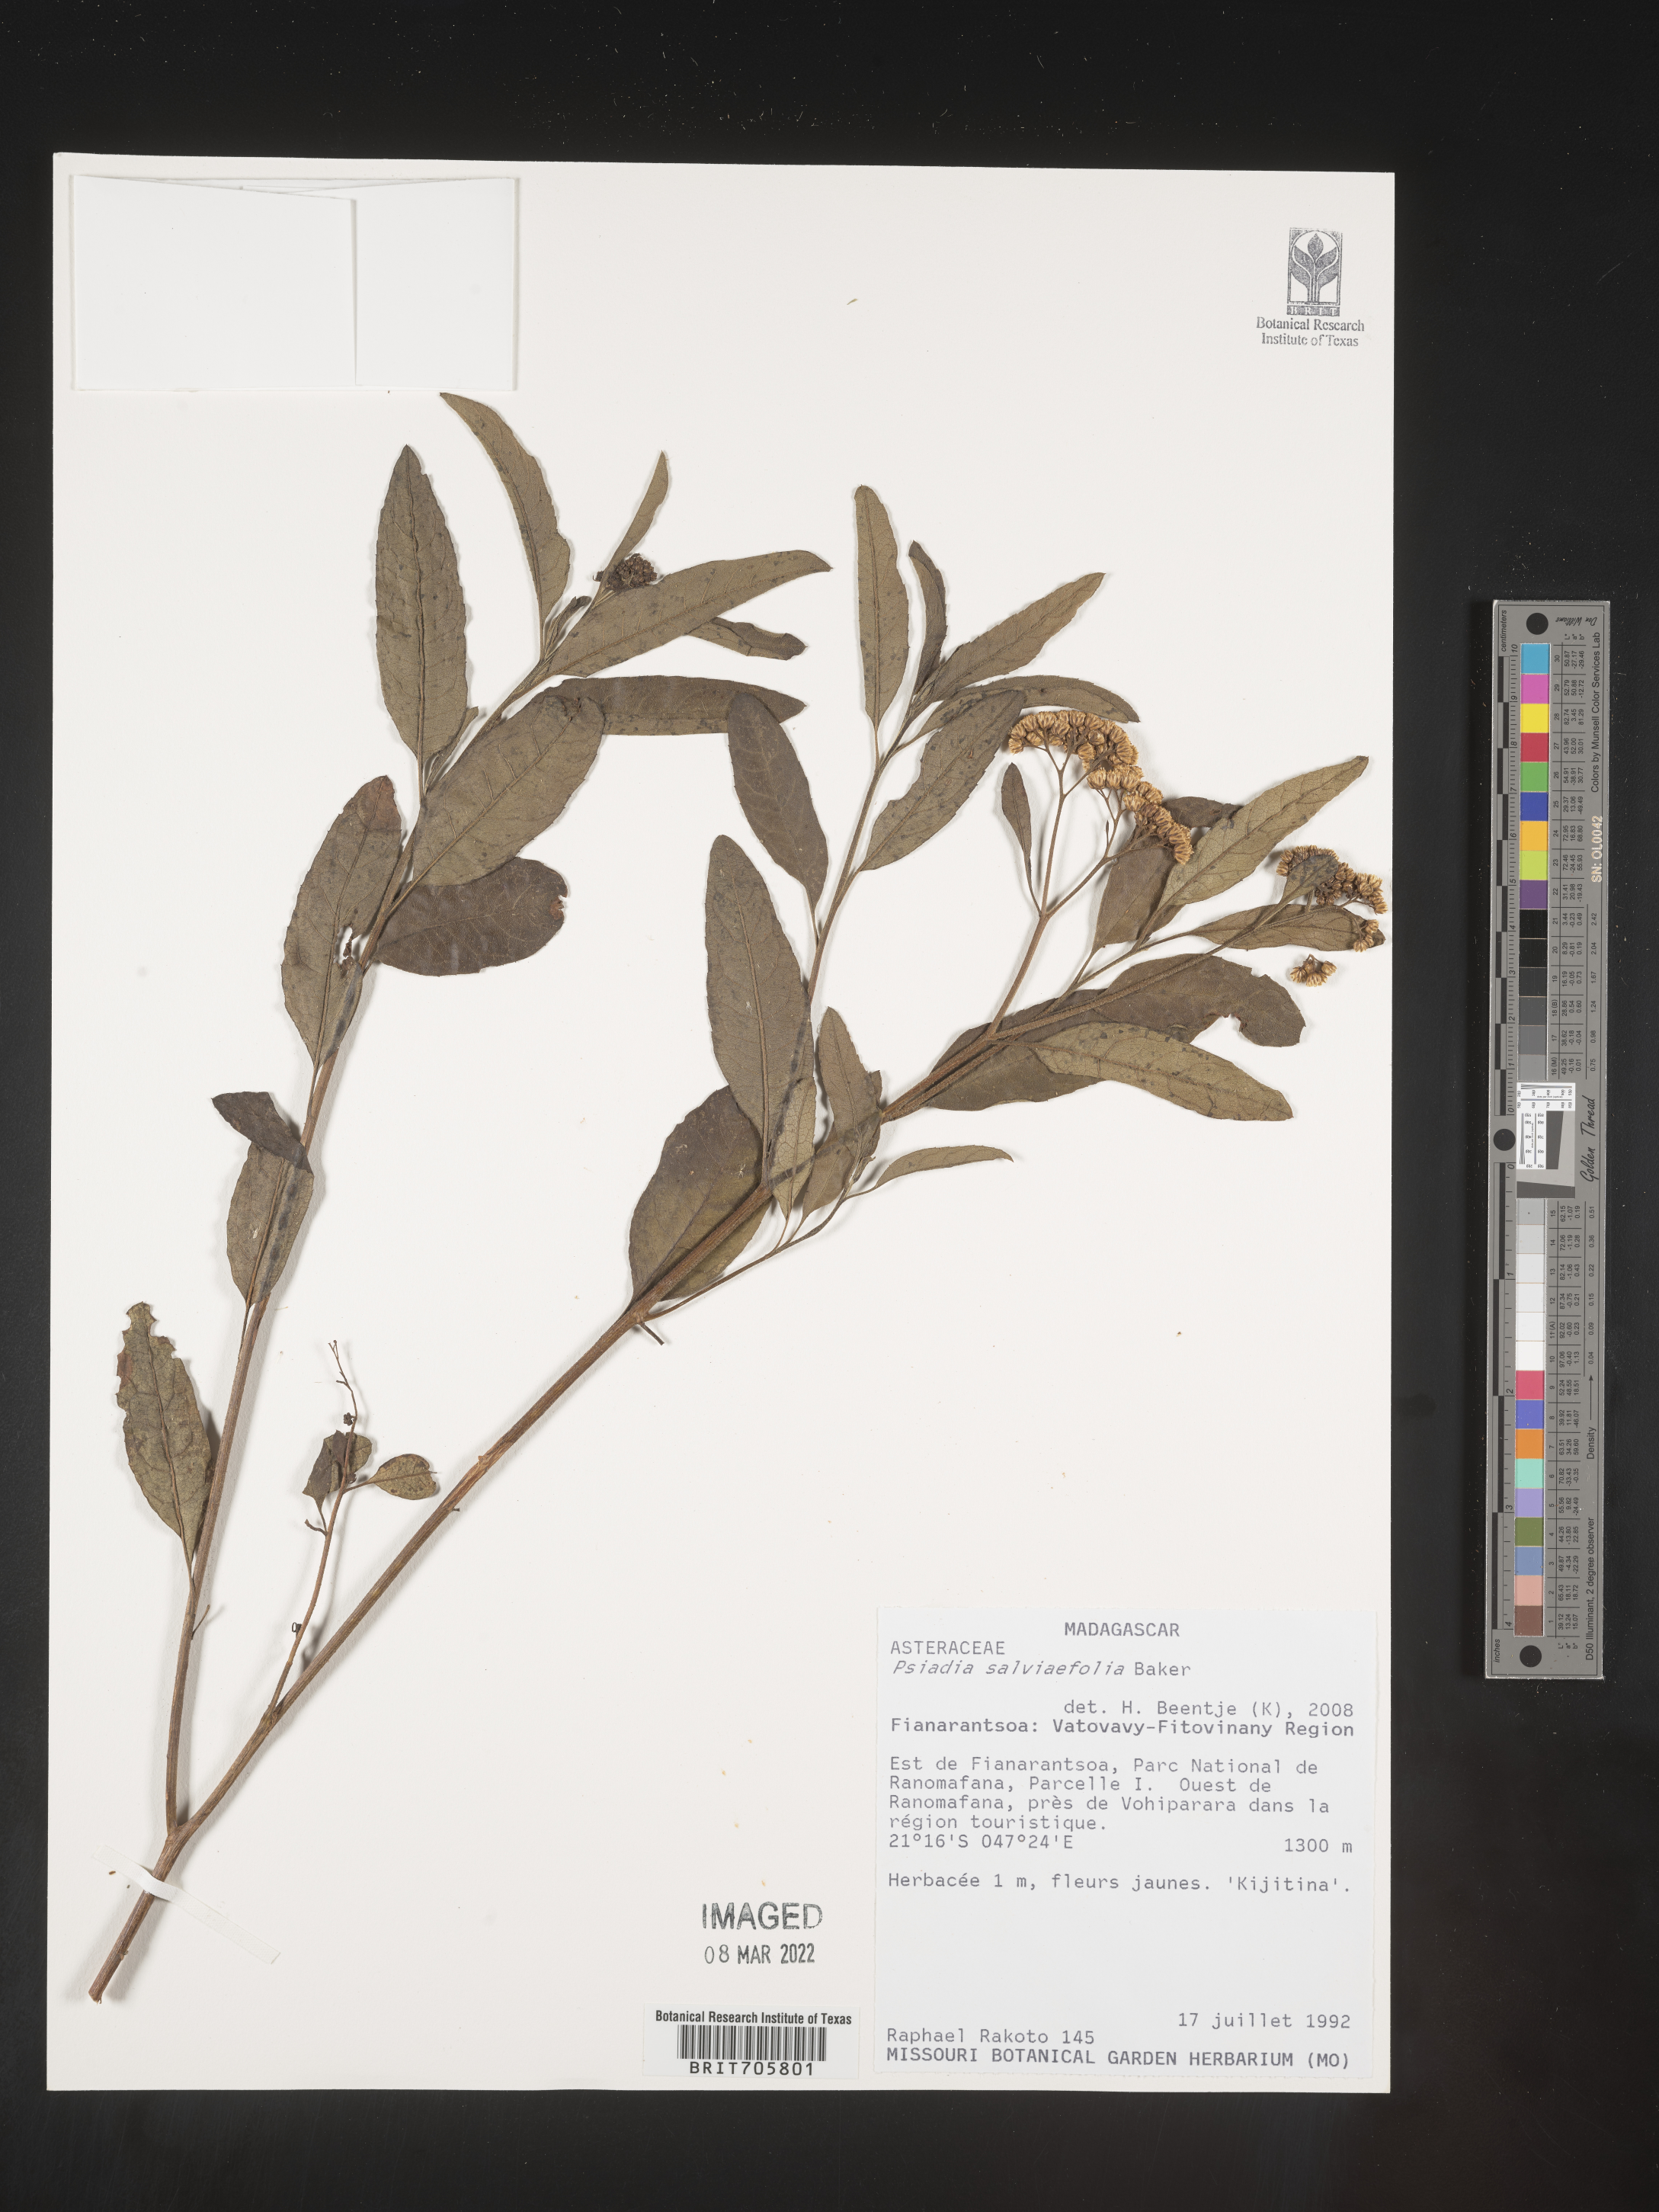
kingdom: Plantae
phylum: Tracheophyta
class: Magnoliopsida
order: Asterales
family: Asteraceae
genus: Psiadia
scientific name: Psiadia
